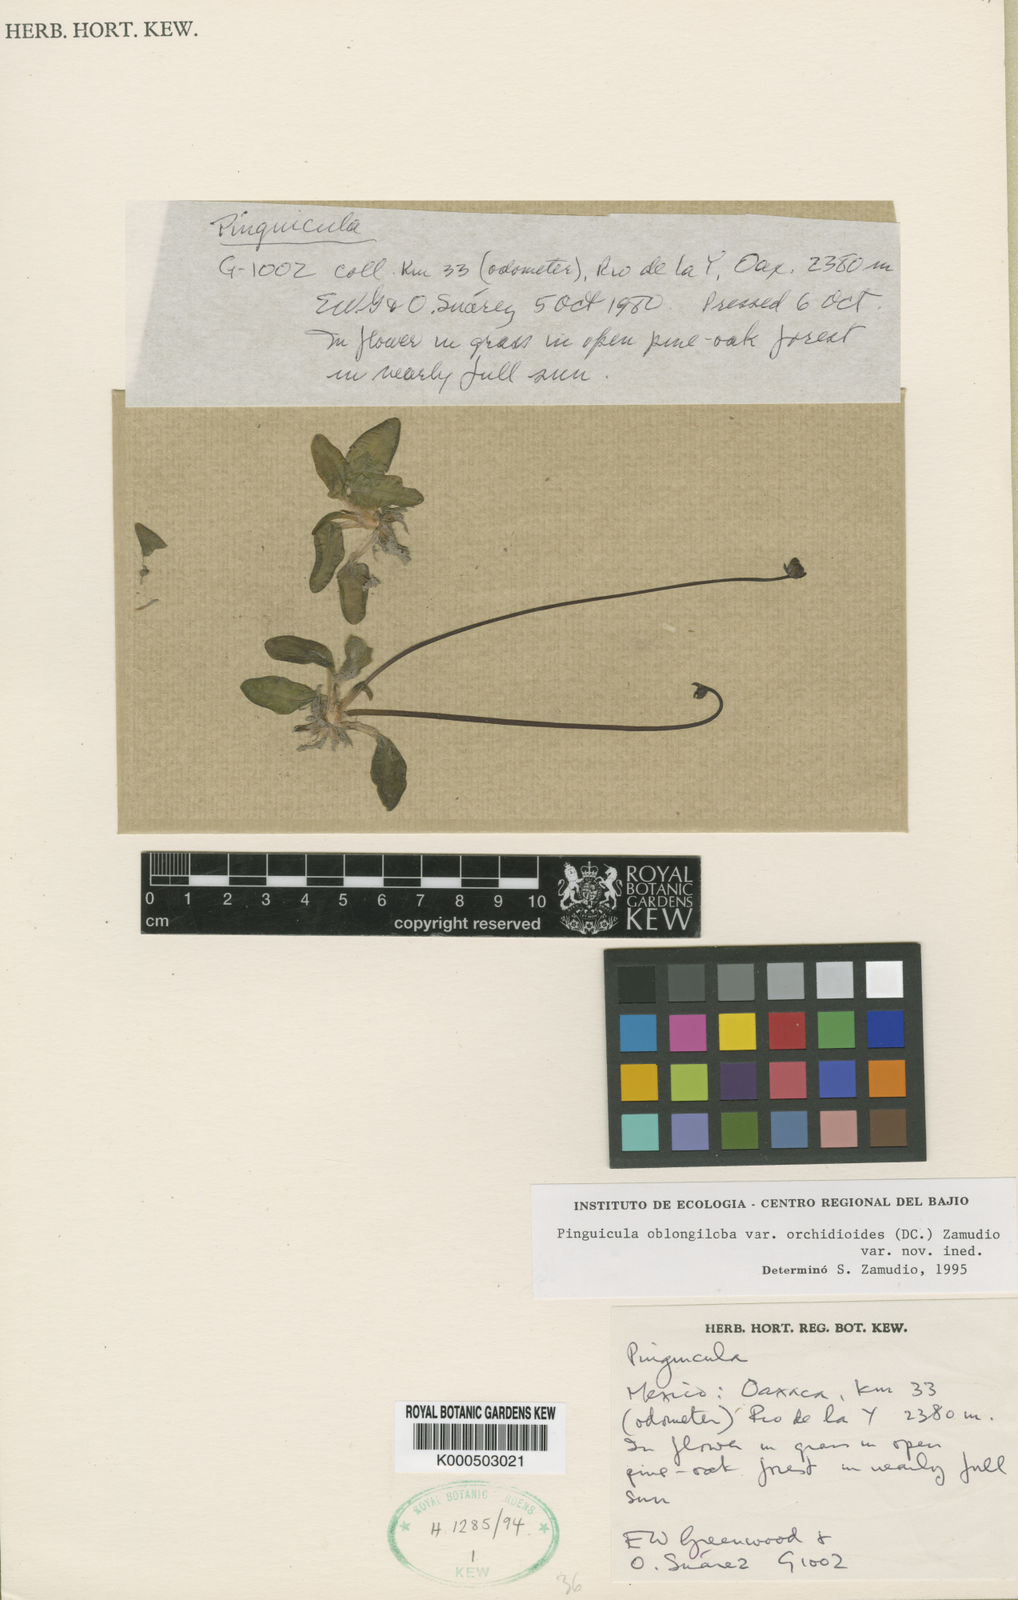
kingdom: Plantae
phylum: Tracheophyta
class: Magnoliopsida
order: Lamiales
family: Lentibulariaceae
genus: Pinguicula
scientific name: Pinguicula
